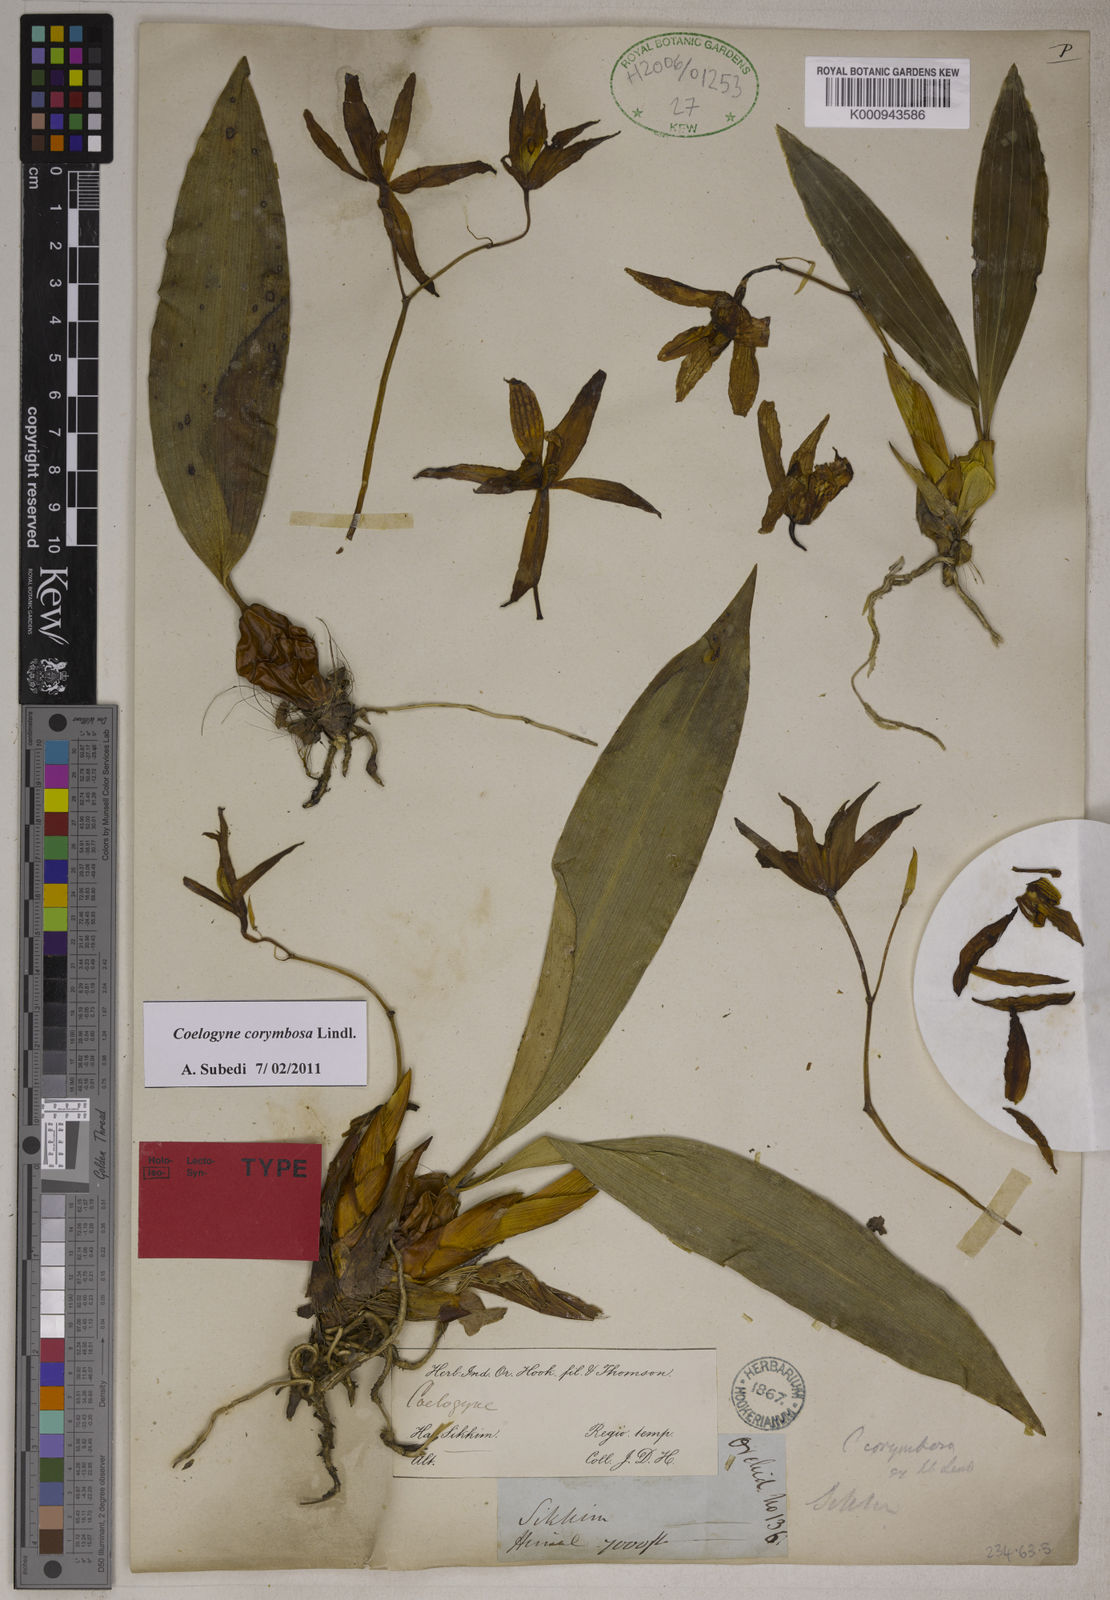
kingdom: Plantae
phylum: Tracheophyta
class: Liliopsida
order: Asparagales
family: Orchidaceae
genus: Coelogyne
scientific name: Coelogyne corymbosa
